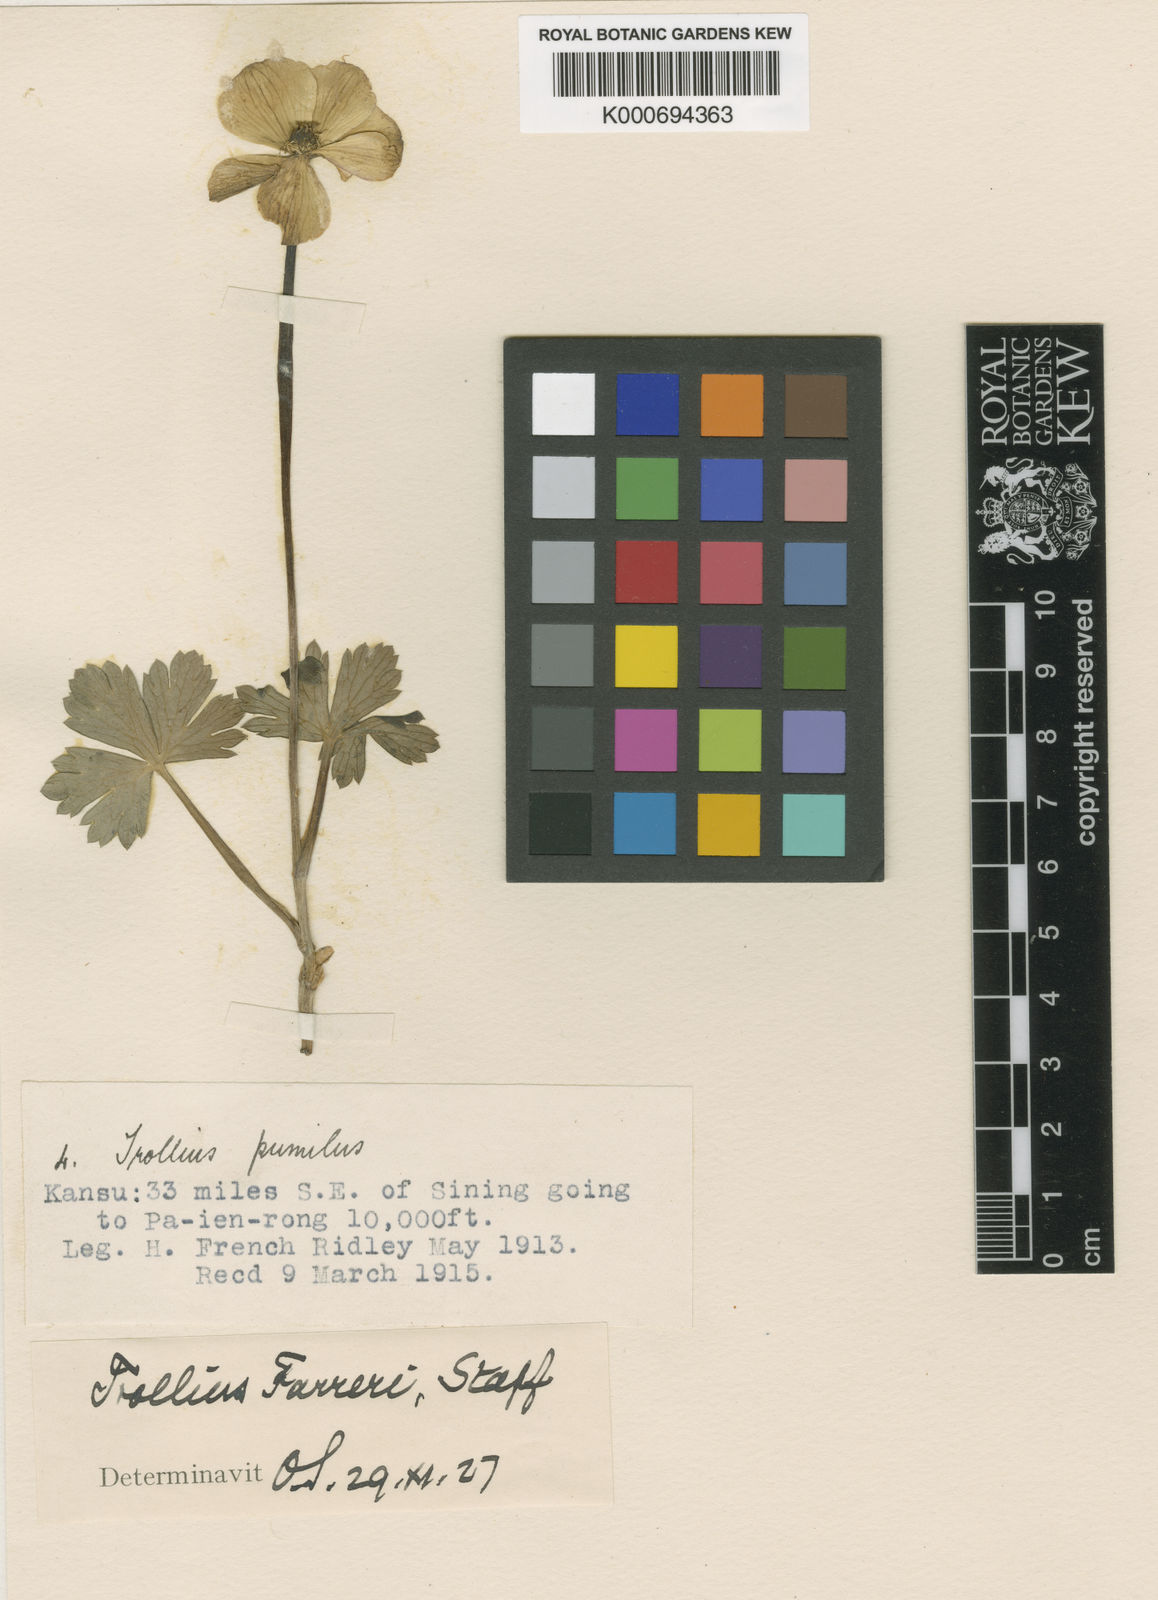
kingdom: Plantae
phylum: Tracheophyta
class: Magnoliopsida
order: Ranunculales
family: Ranunculaceae
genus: Trollius
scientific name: Trollius farreri
